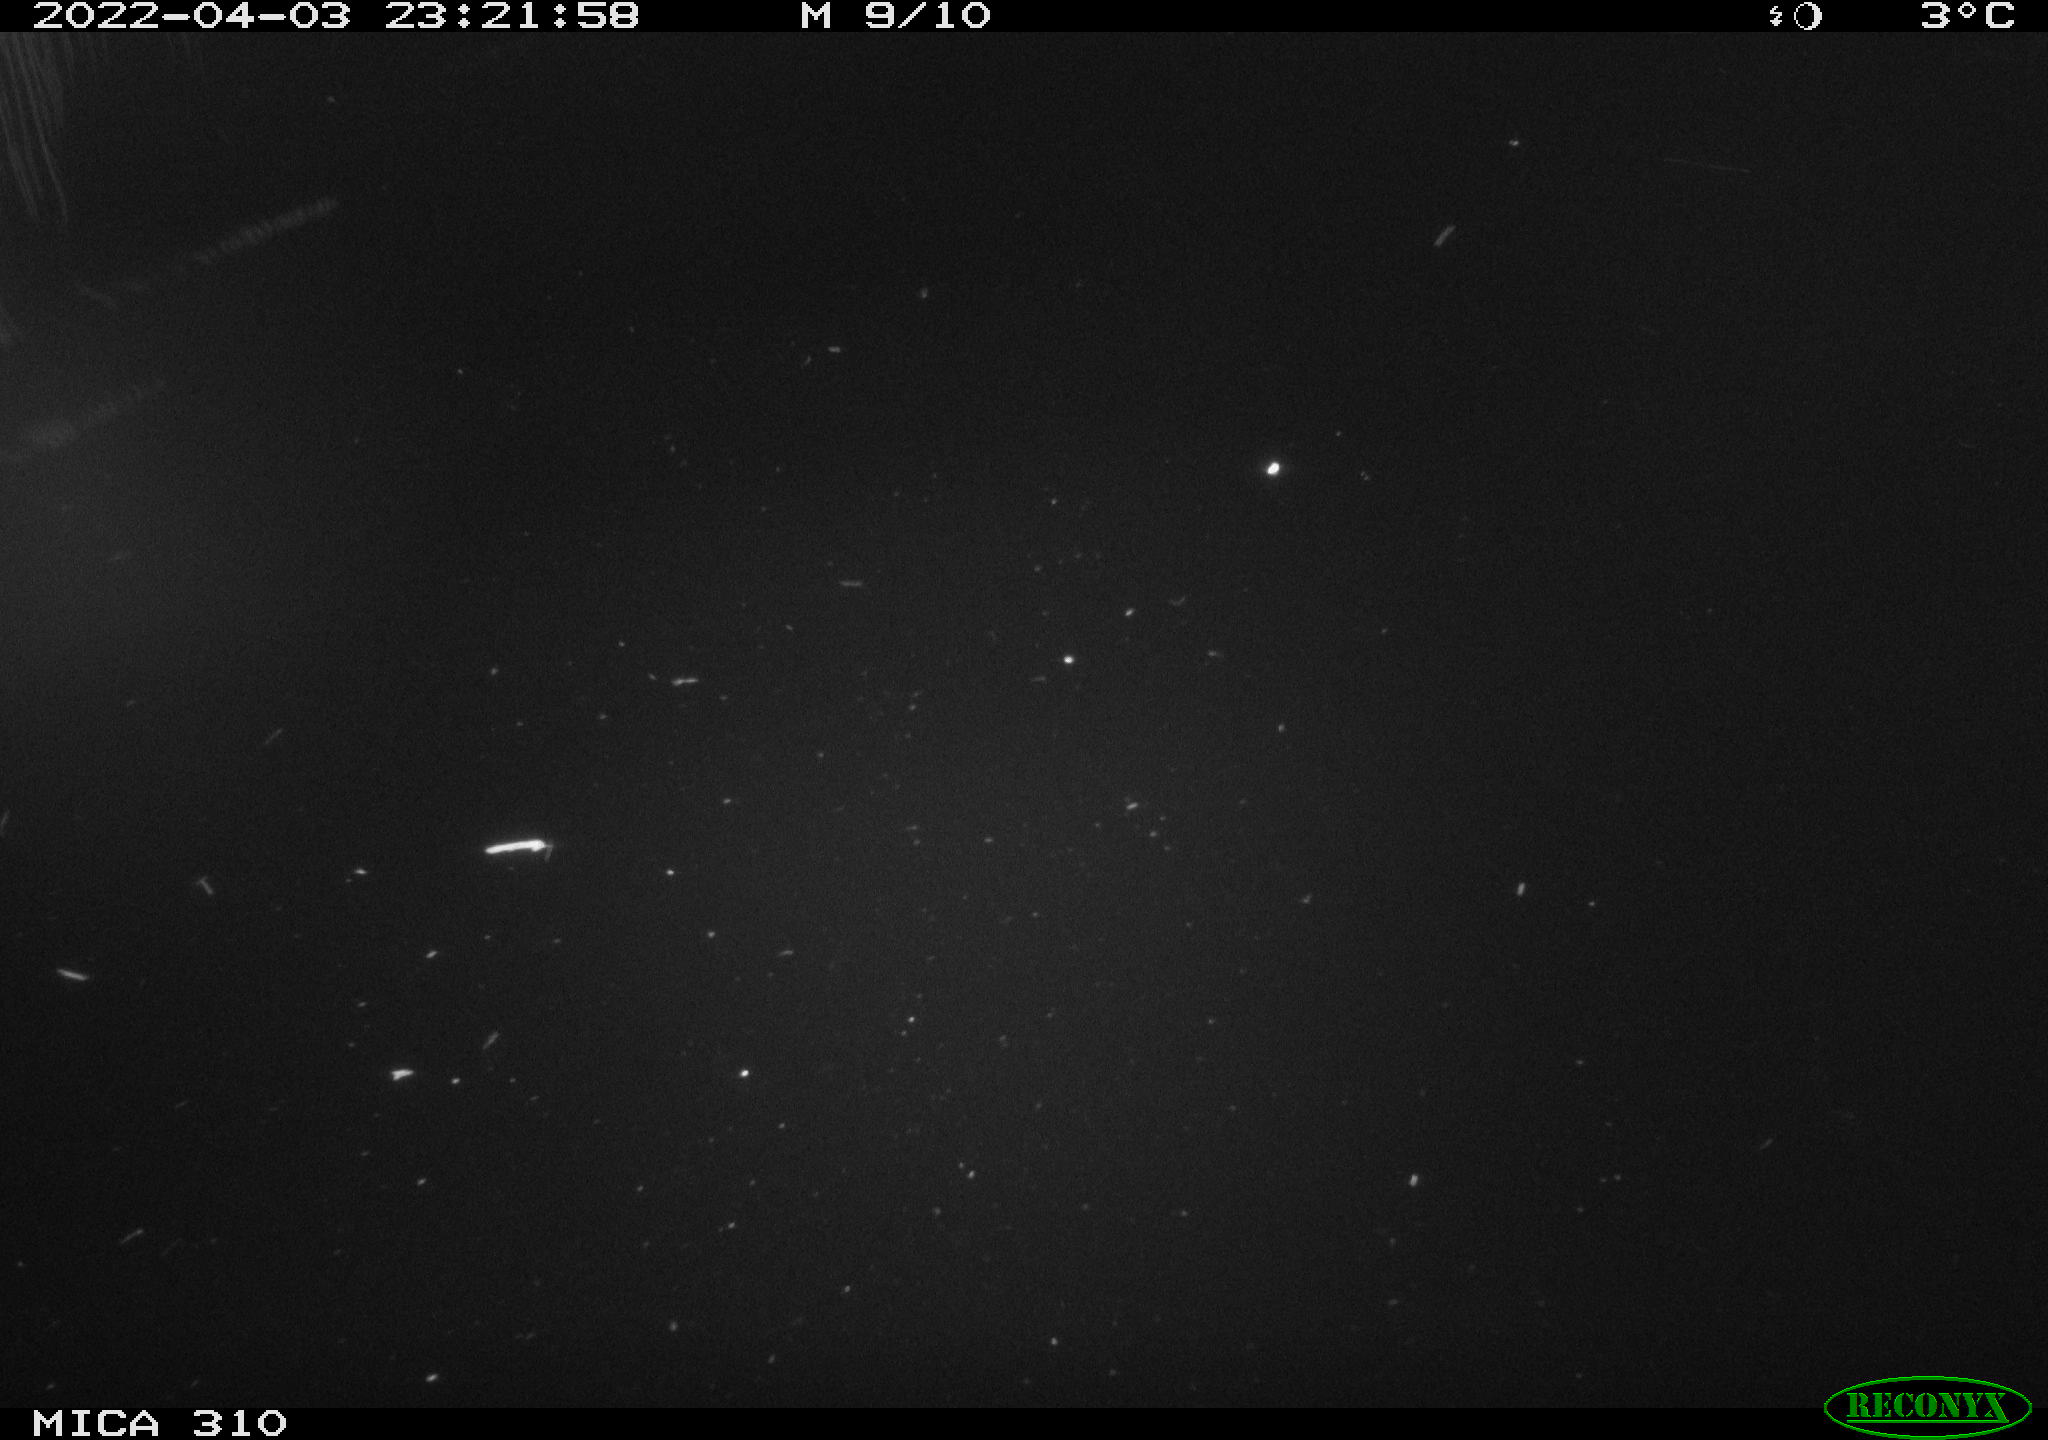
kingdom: Animalia
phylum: Chordata
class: Aves
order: Anseriformes
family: Anatidae
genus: Anas
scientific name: Anas platyrhynchos
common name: Mallard
